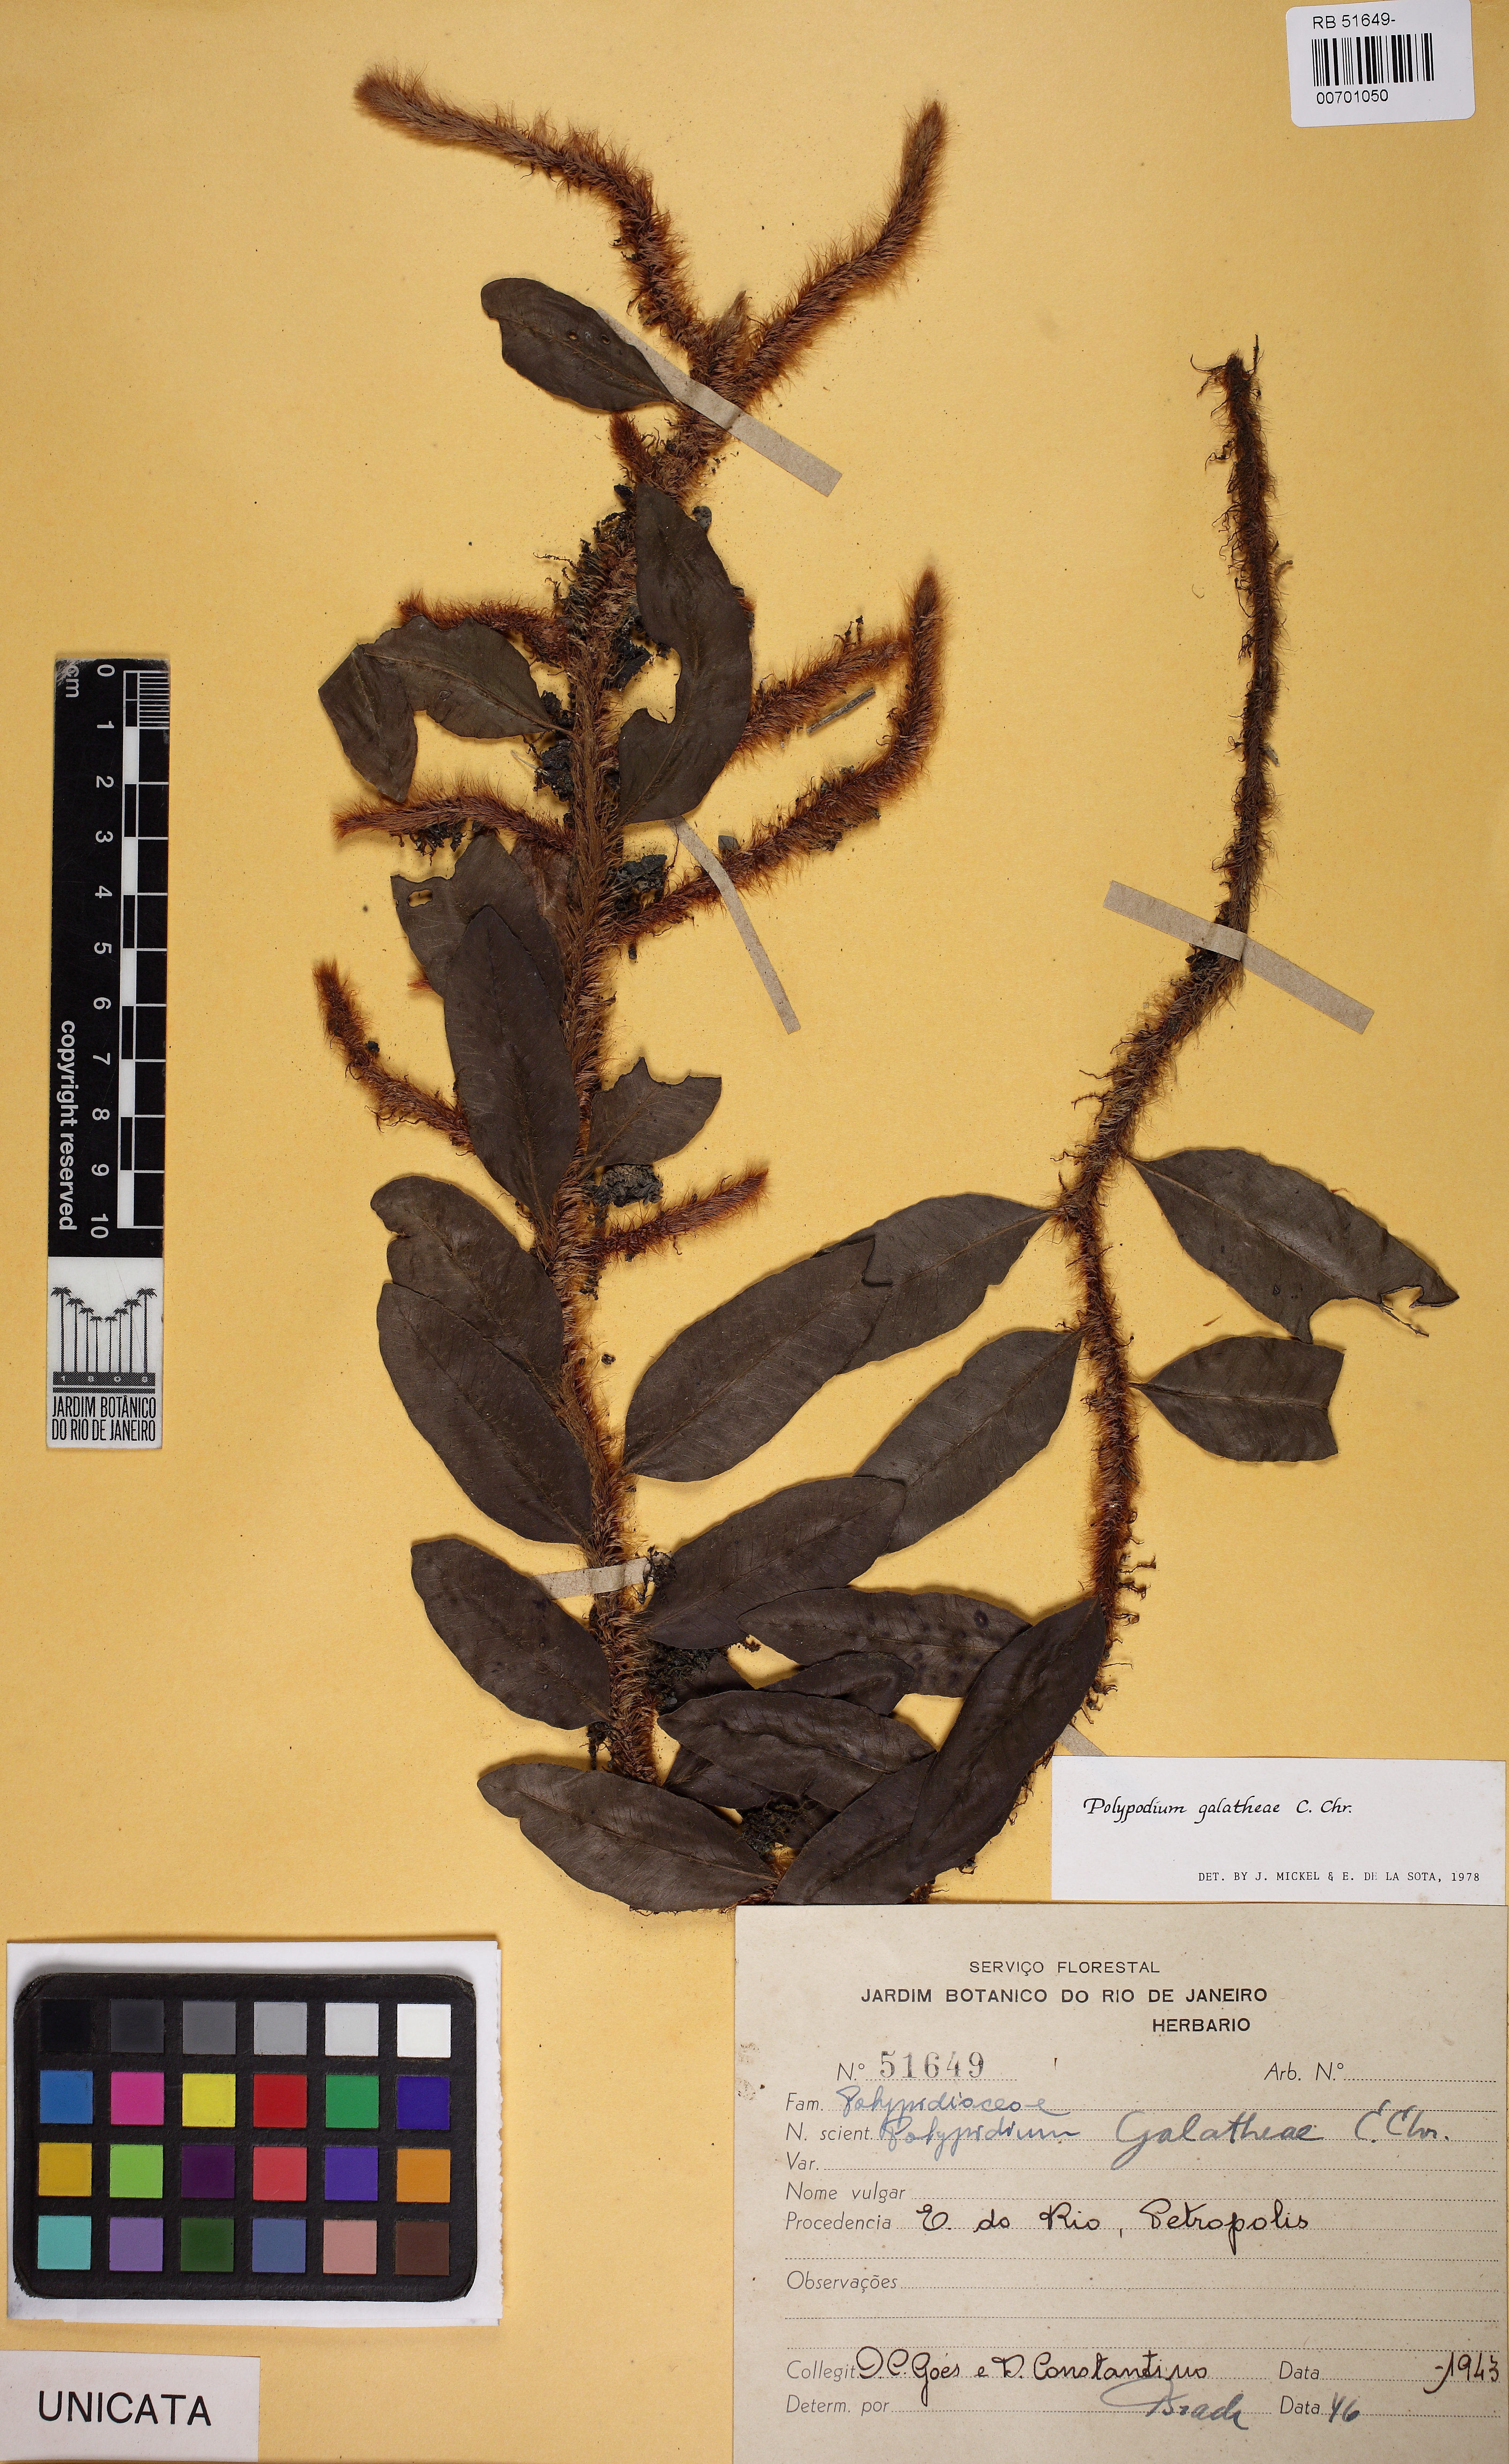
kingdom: Plantae
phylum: Tracheophyta
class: Polypodiopsida
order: Polypodiales
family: Polypodiaceae
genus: Microgramma
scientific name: Microgramma crispata
